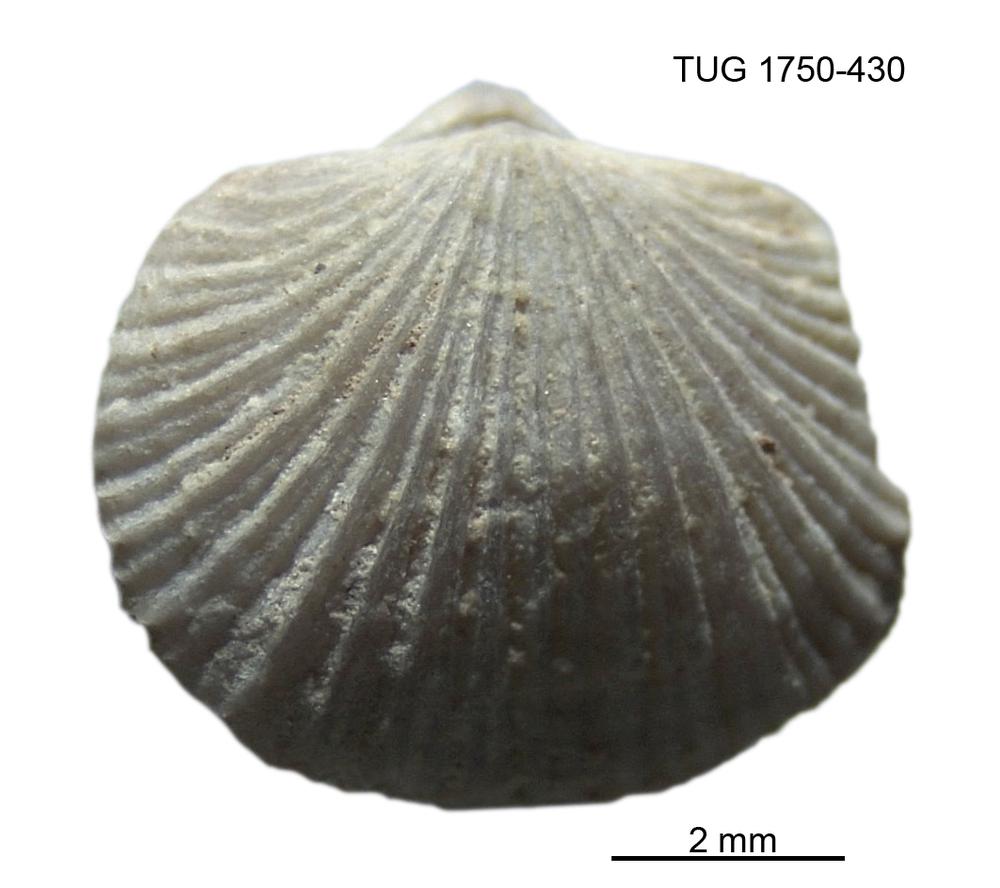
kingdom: Animalia
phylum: Brachiopoda
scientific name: Brachiopoda
